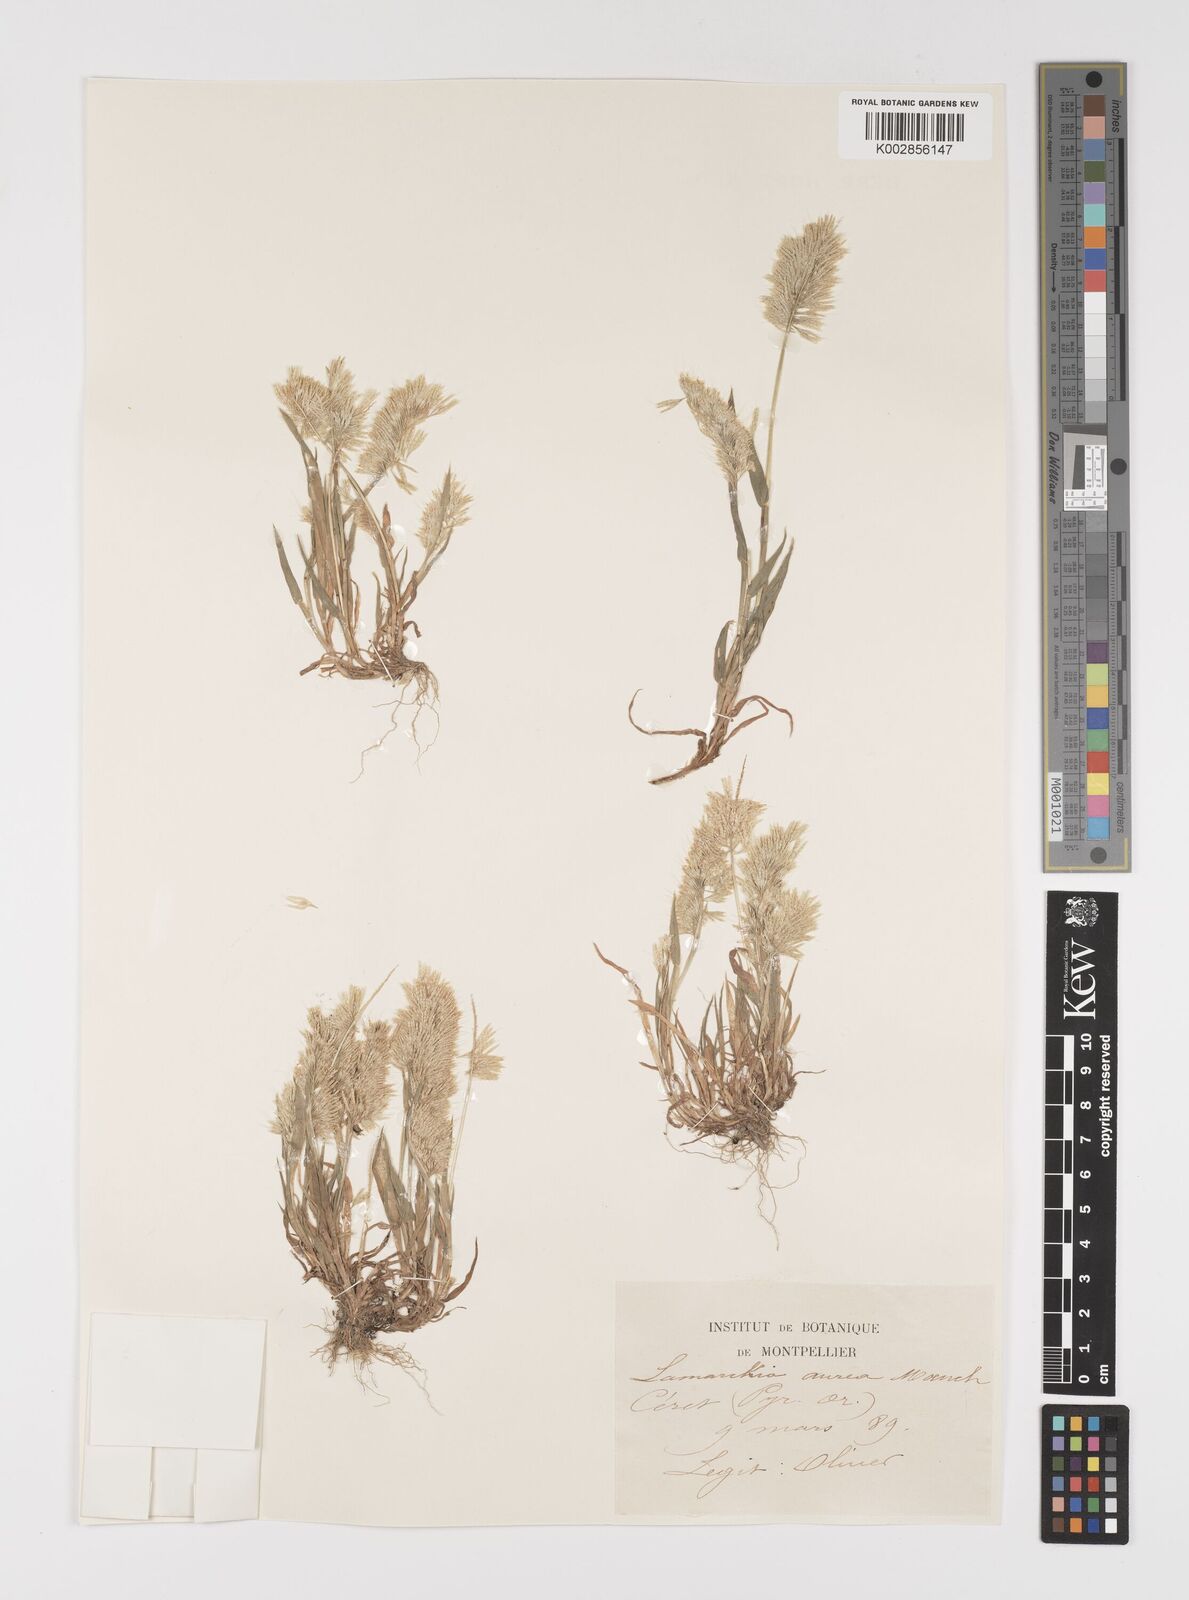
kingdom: Plantae
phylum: Tracheophyta
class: Liliopsida
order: Poales
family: Poaceae
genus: Lamarckia
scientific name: Lamarckia aurea
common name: Golden dog's-tail
